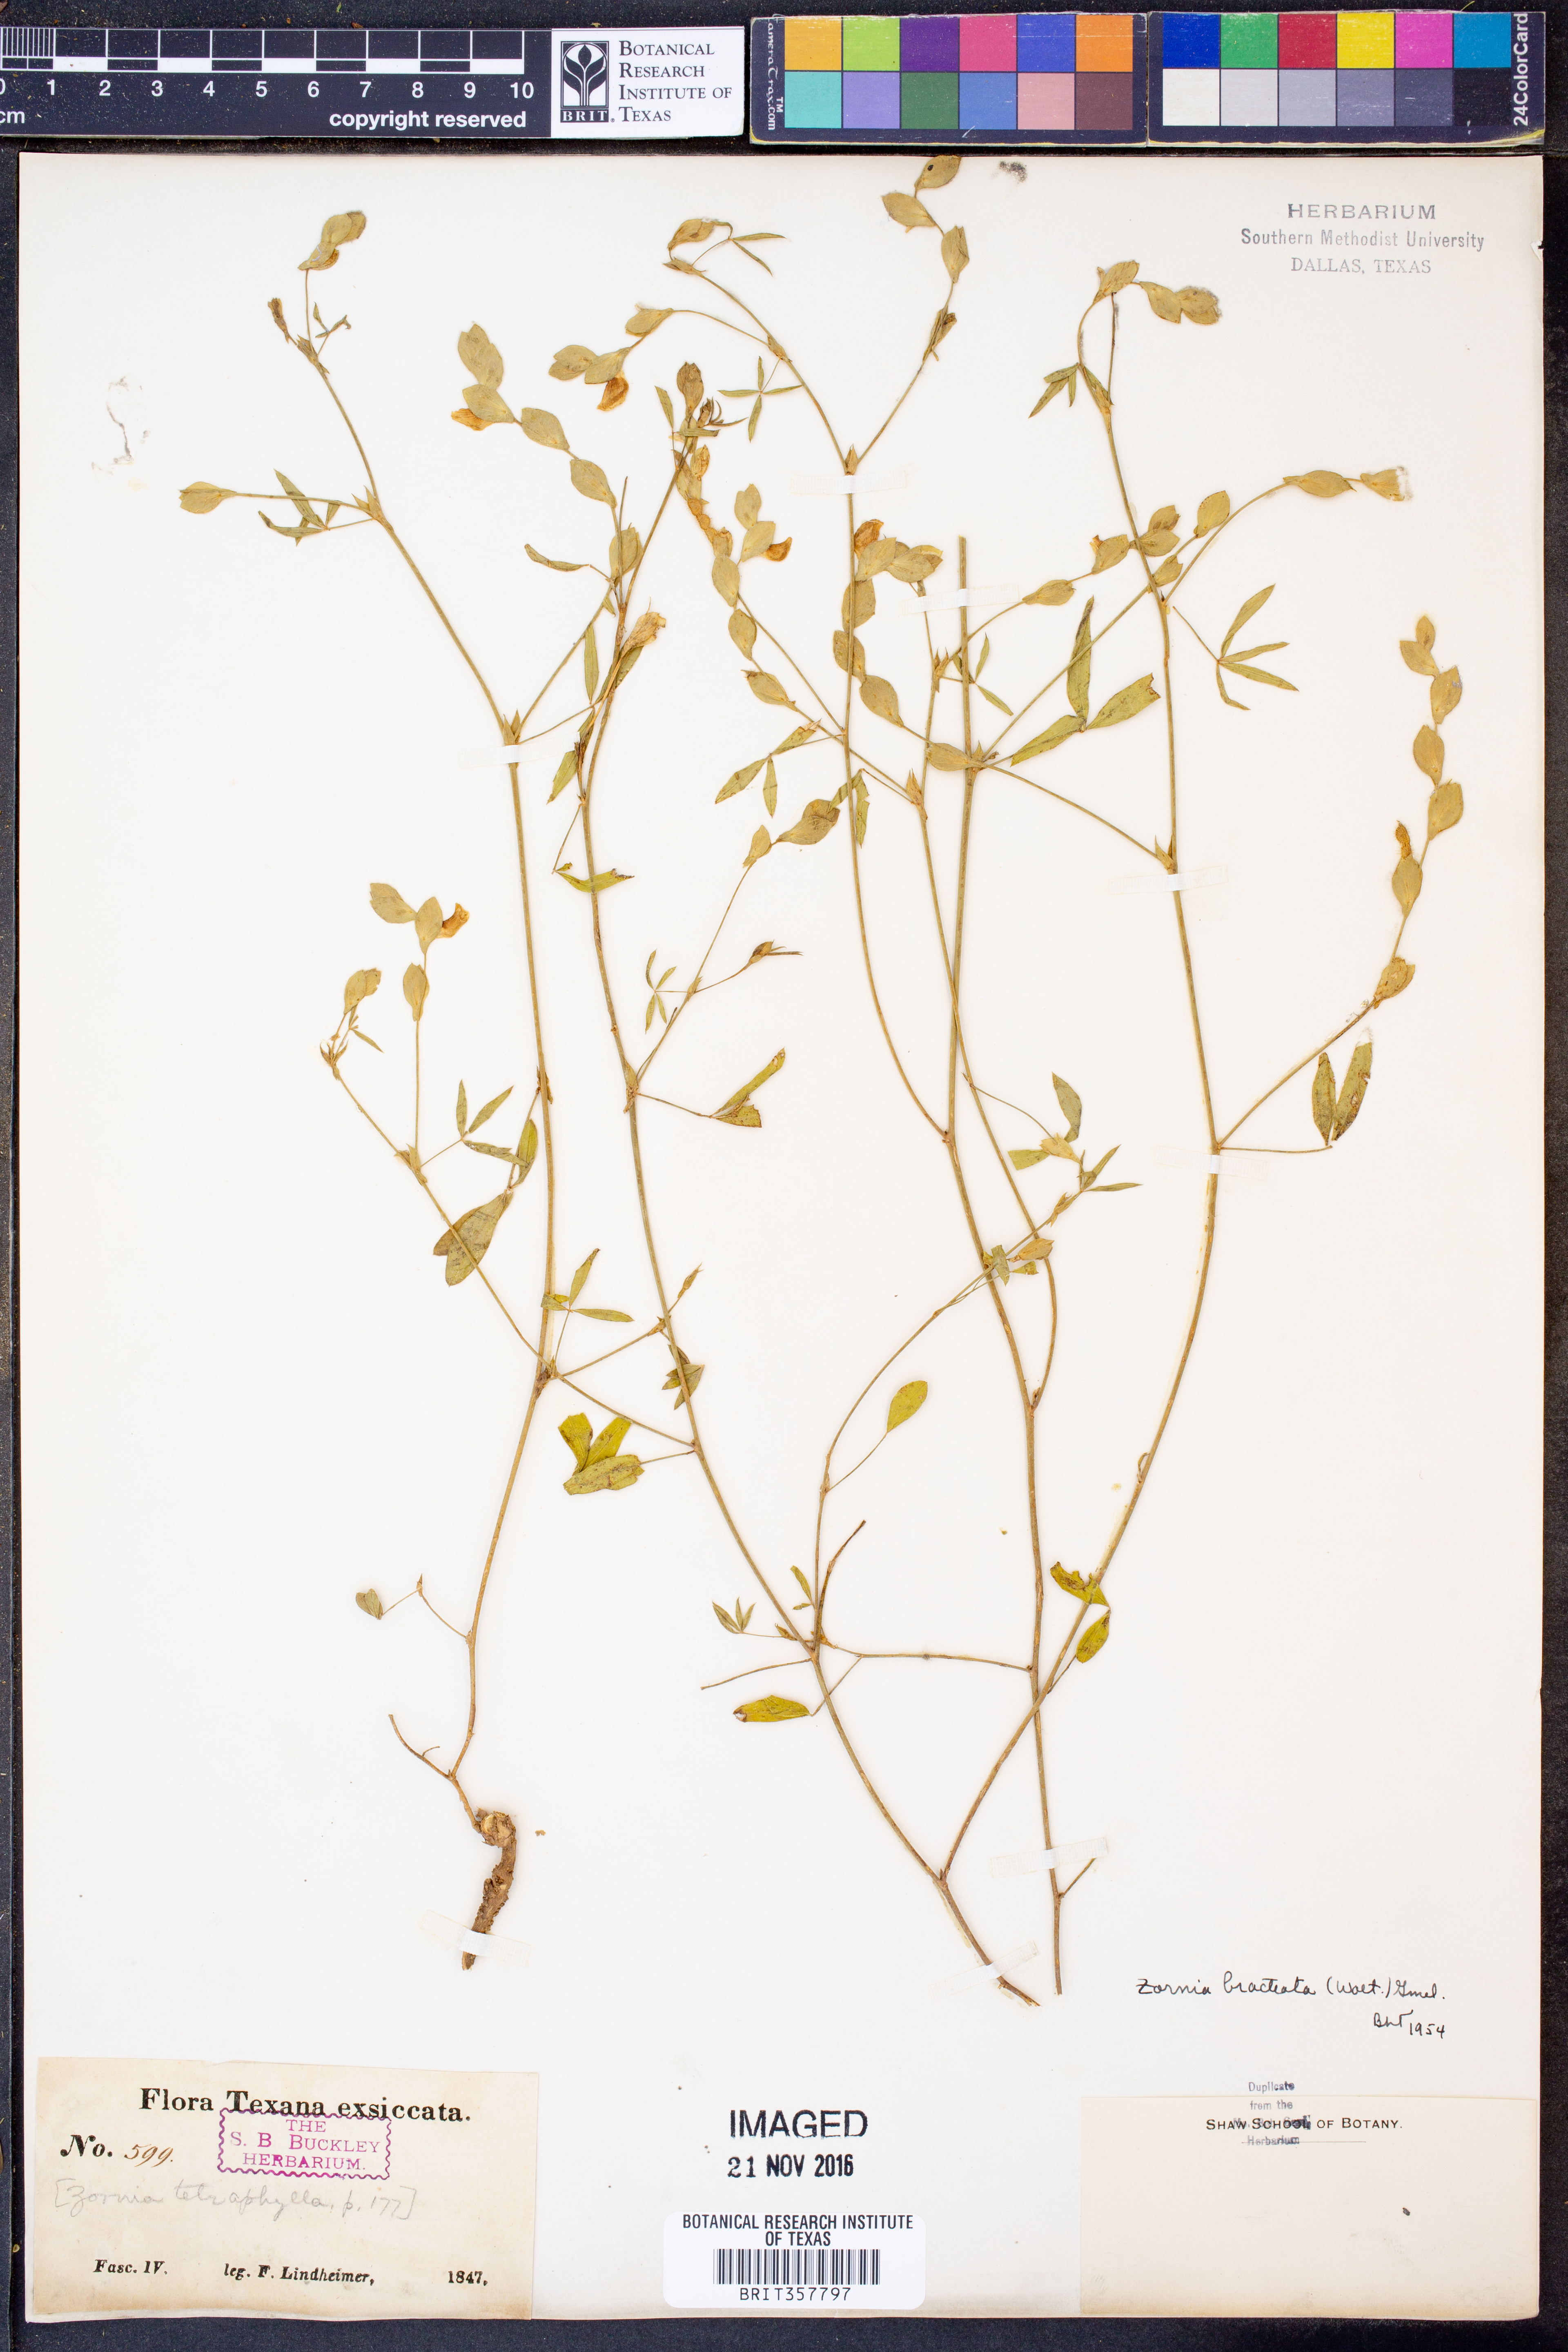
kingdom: Plantae
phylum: Tracheophyta
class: Magnoliopsida
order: Fabales
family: Fabaceae
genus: Zornia
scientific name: Zornia bracteata
